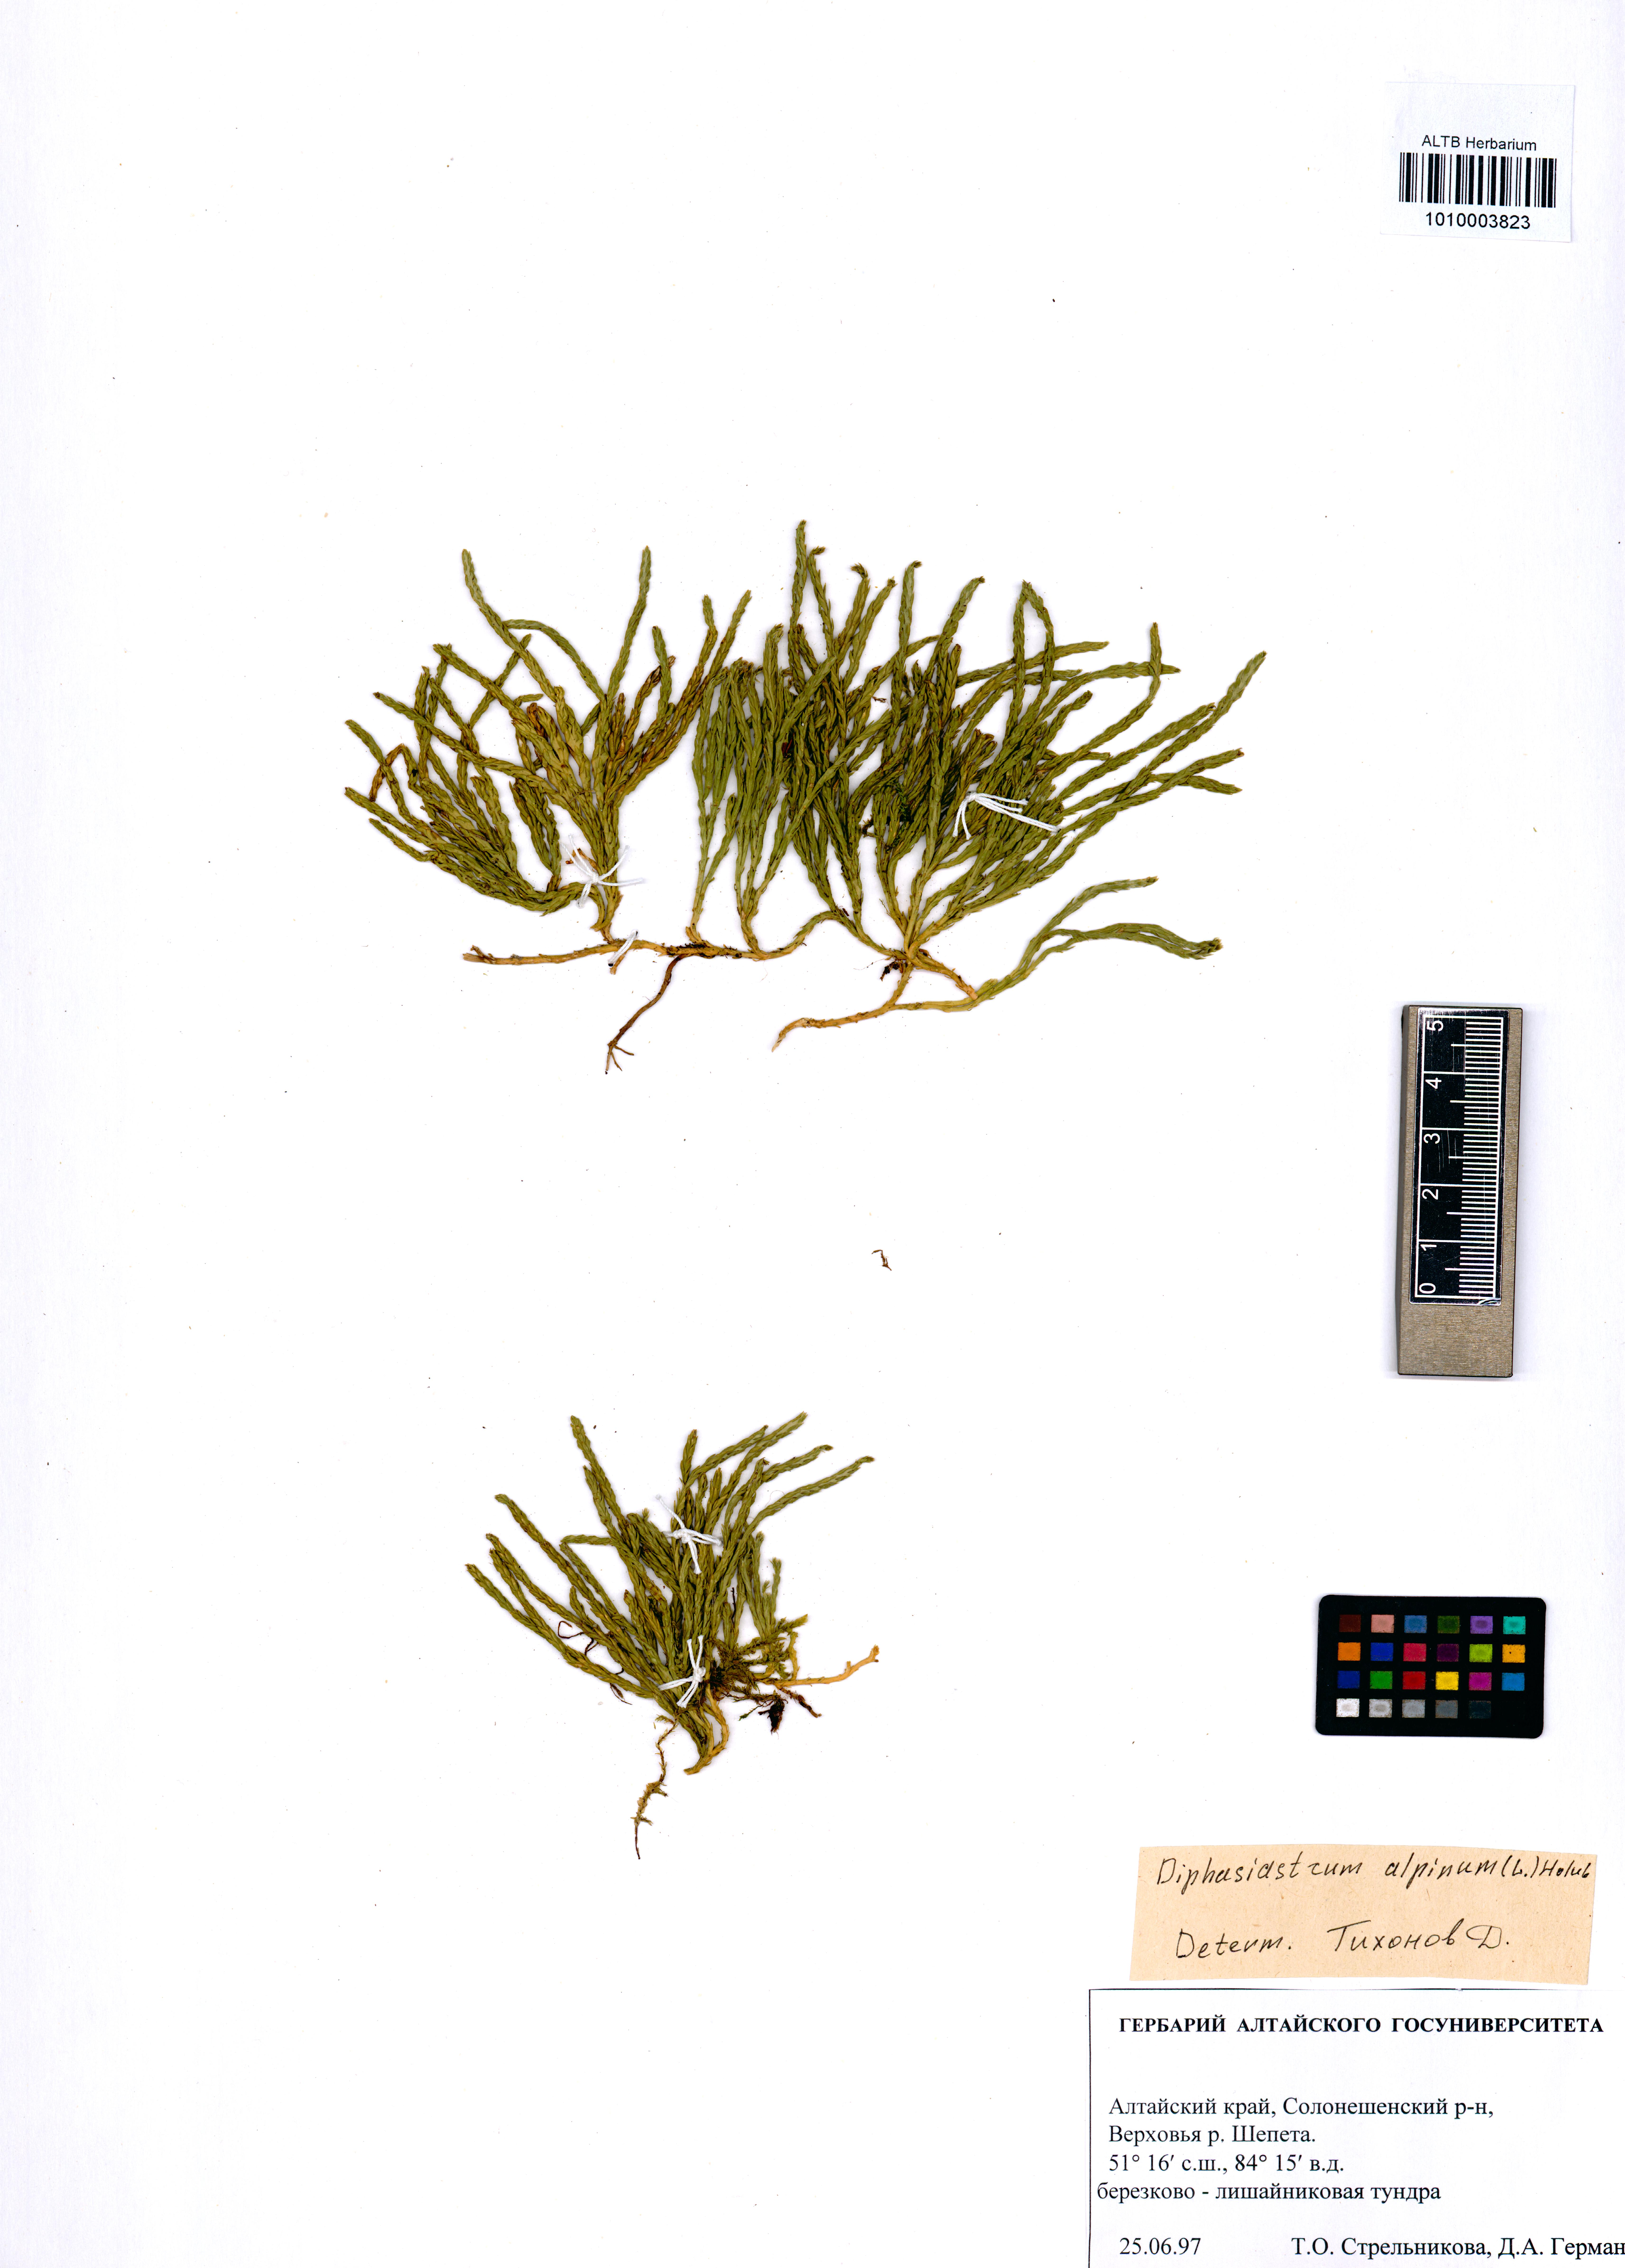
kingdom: Plantae
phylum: Tracheophyta
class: Lycopodiopsida
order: Lycopodiales
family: Lycopodiaceae
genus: Diphasiastrum
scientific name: Diphasiastrum alpinum
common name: Alpine clubmoss
